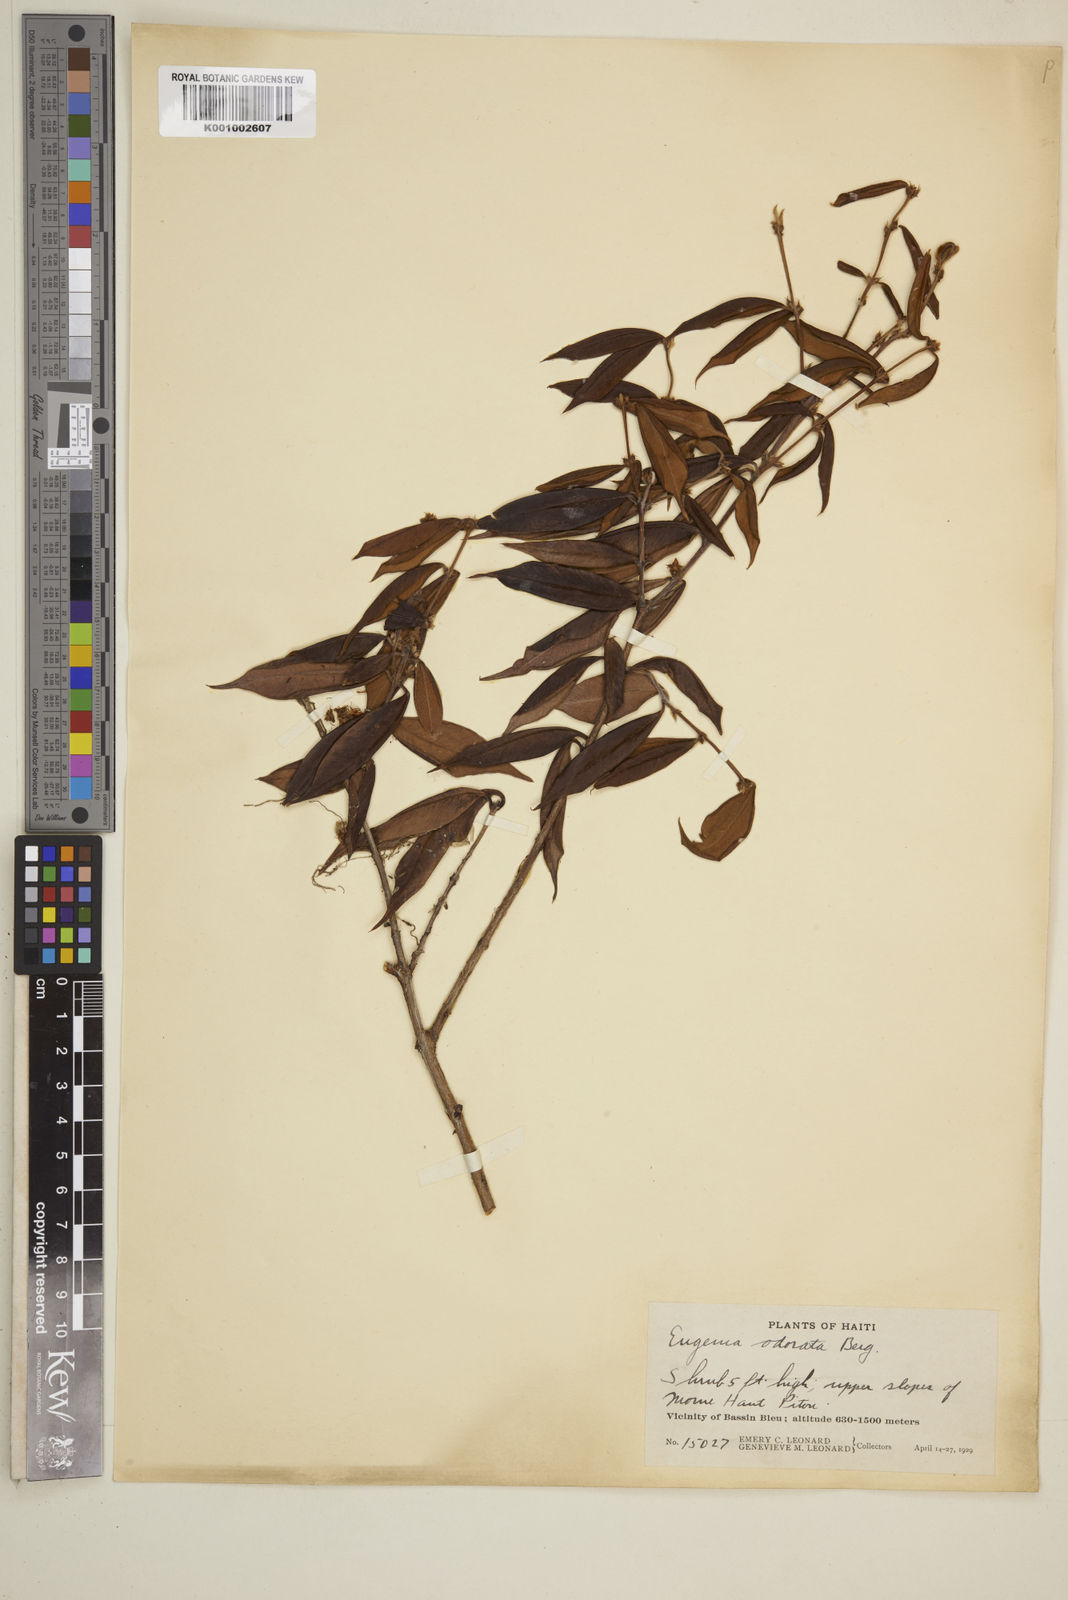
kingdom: Plantae
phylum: Tracheophyta
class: Magnoliopsida
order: Myrtales
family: Myrtaceae
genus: Syzygium
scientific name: Syzygium brachiatum
